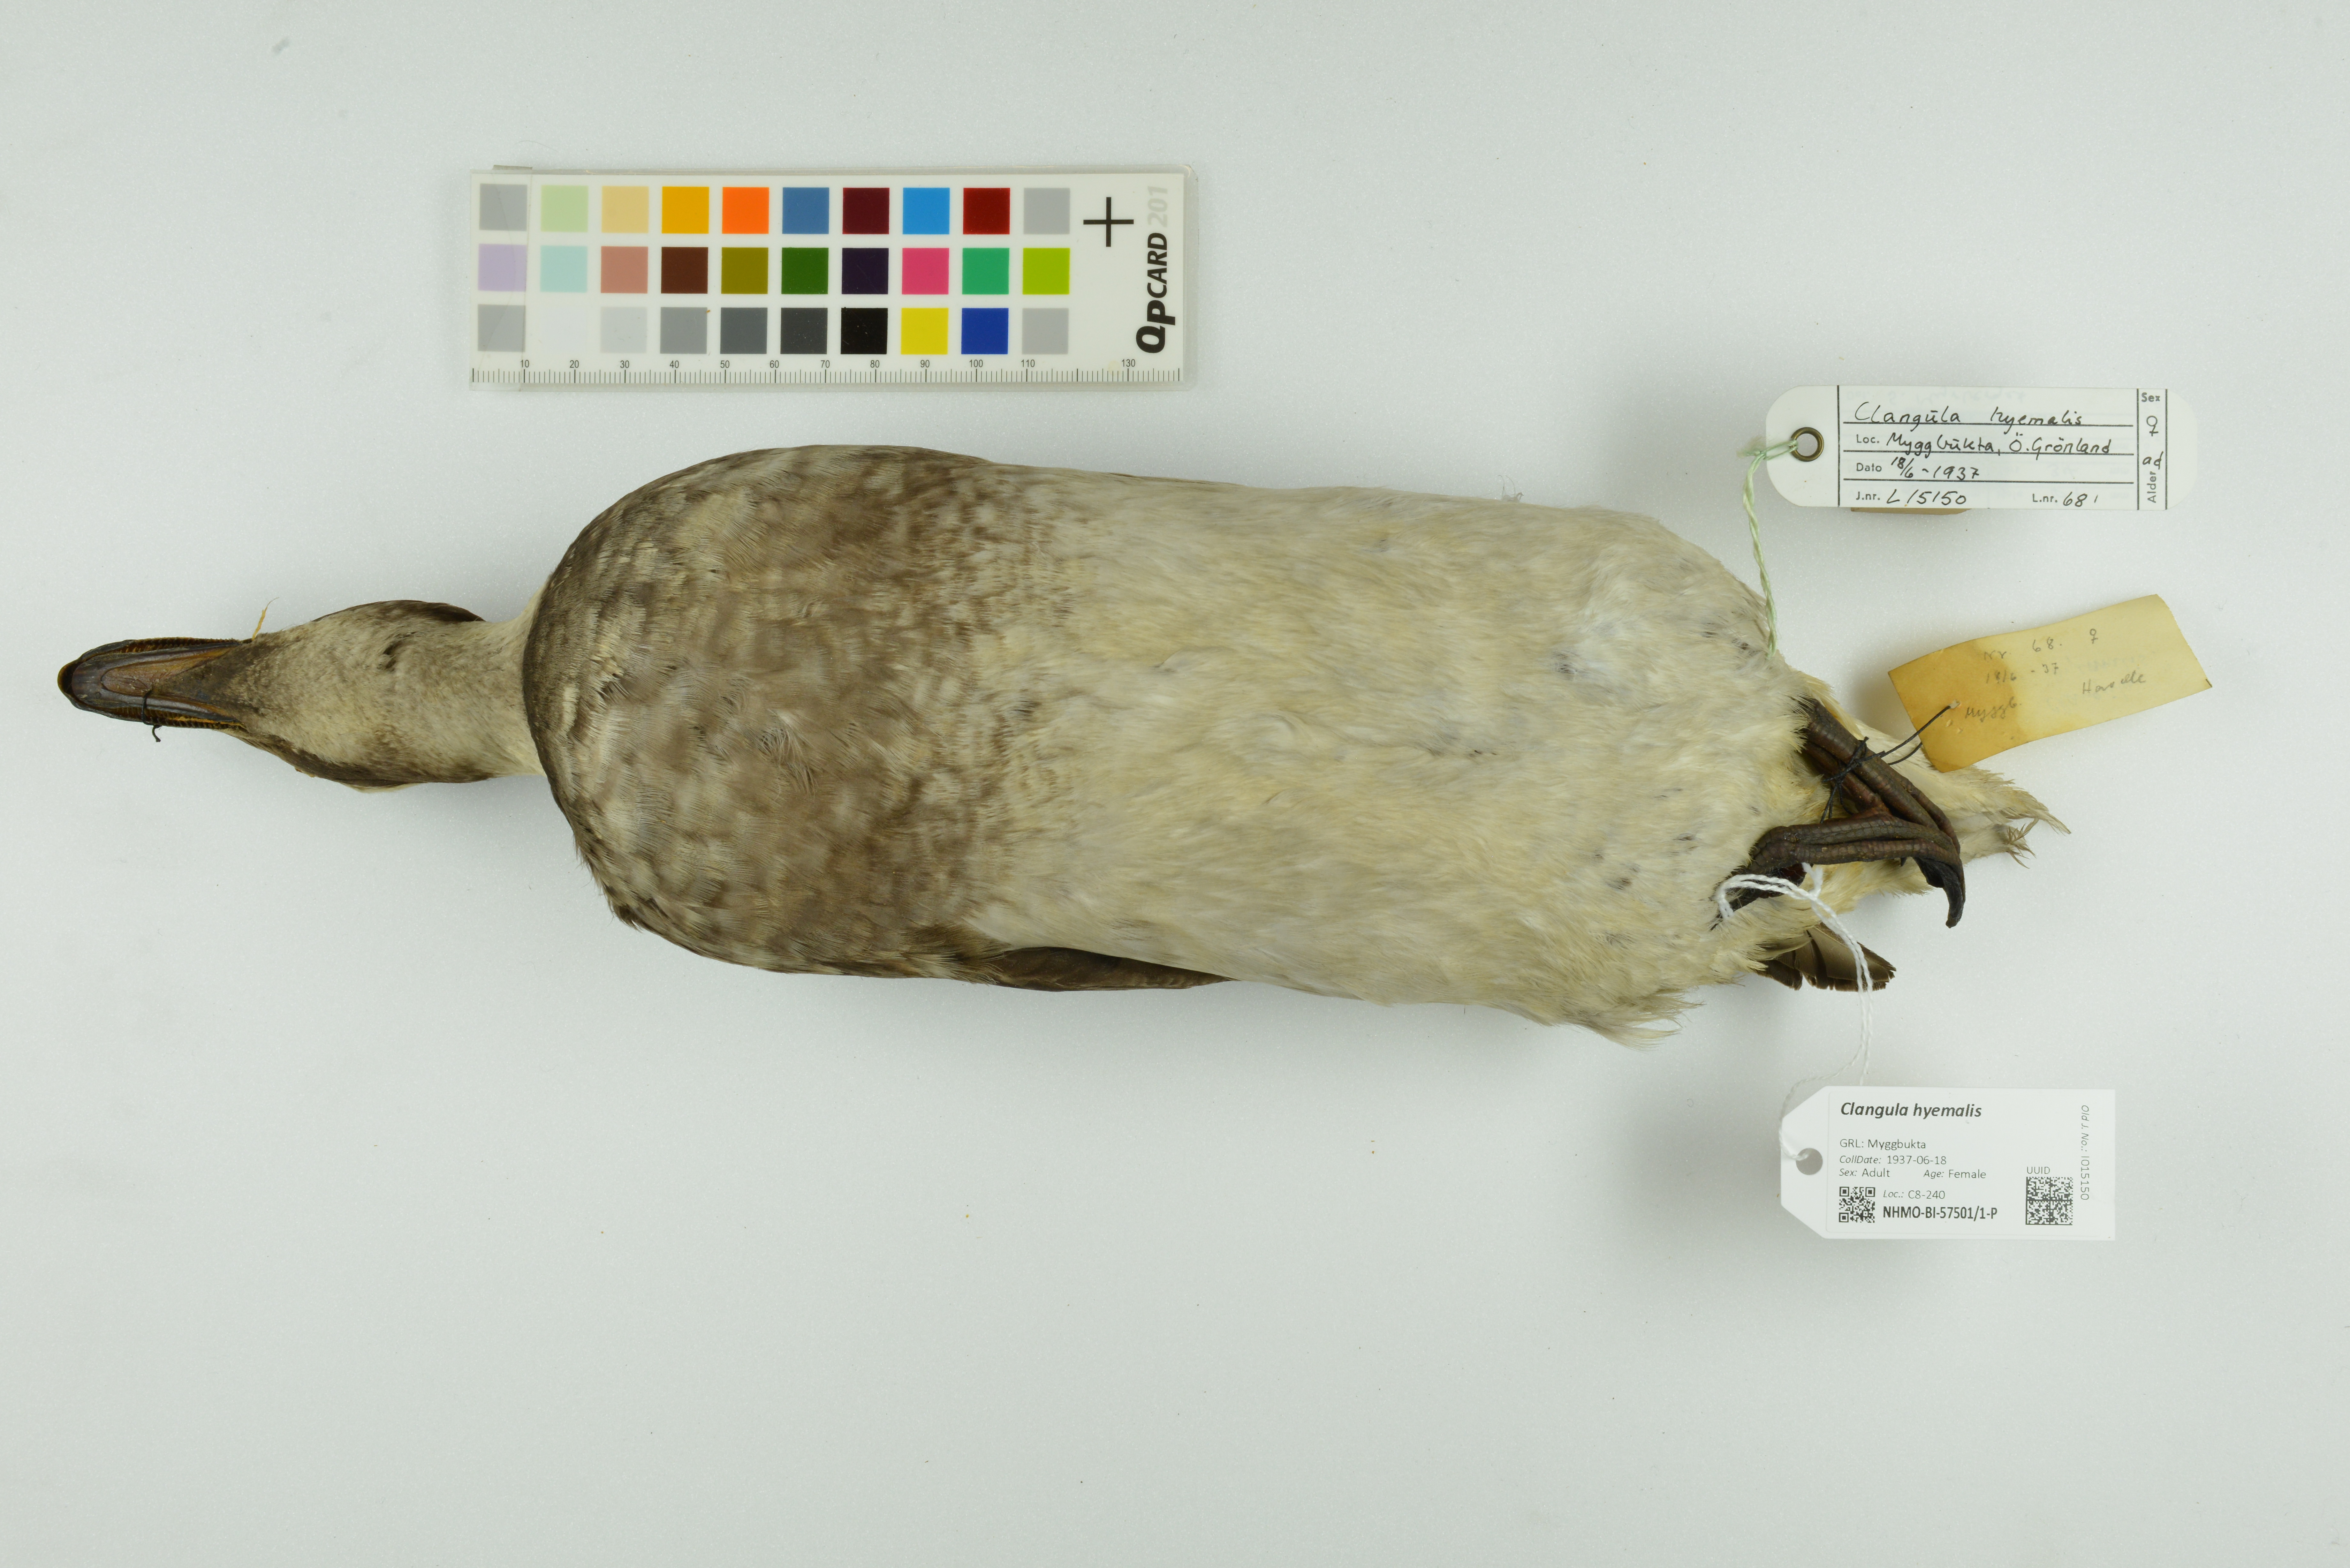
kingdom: Animalia
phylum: Chordata
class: Aves
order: Anseriformes
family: Anatidae
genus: Clangula
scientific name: Clangula hyemalis
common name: Long-tailed duck
